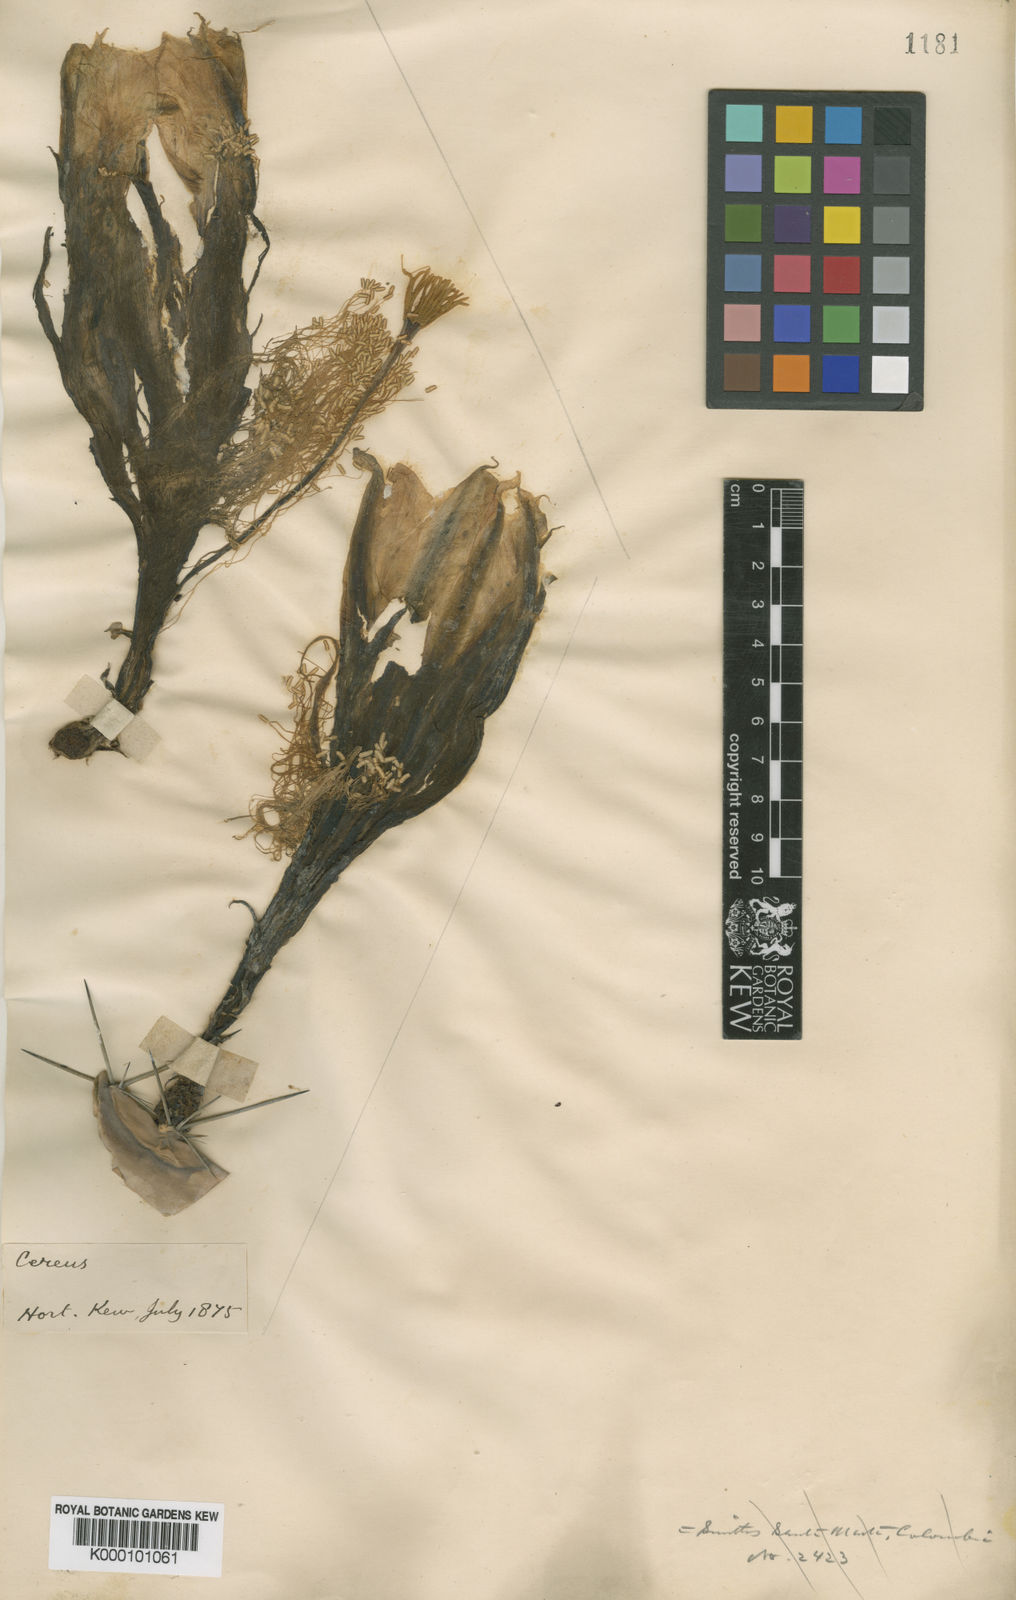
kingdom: Plantae
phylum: Tracheophyta
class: Magnoliopsida
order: Caryophyllales
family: Cactaceae
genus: Harrisia
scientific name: Harrisia
